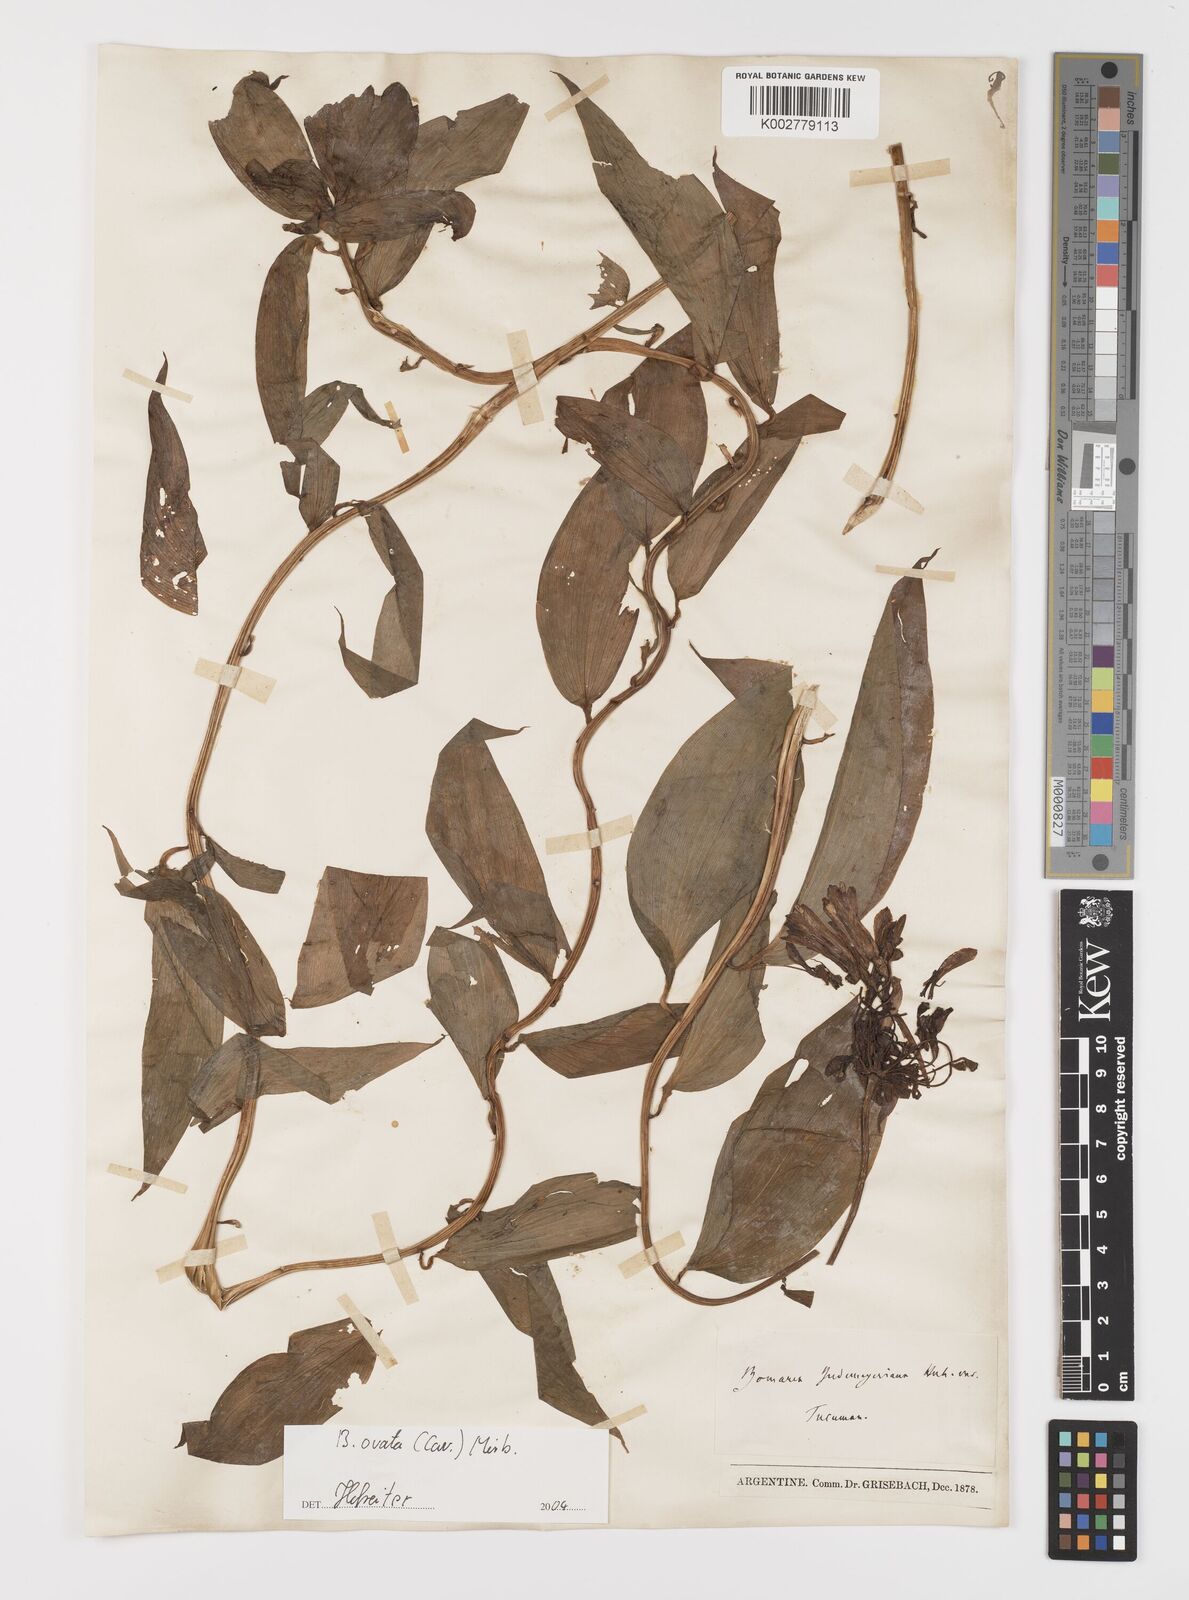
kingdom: Plantae
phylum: Tracheophyta
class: Liliopsida
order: Liliales
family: Alstroemeriaceae
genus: Bomarea
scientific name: Bomarea ovata
